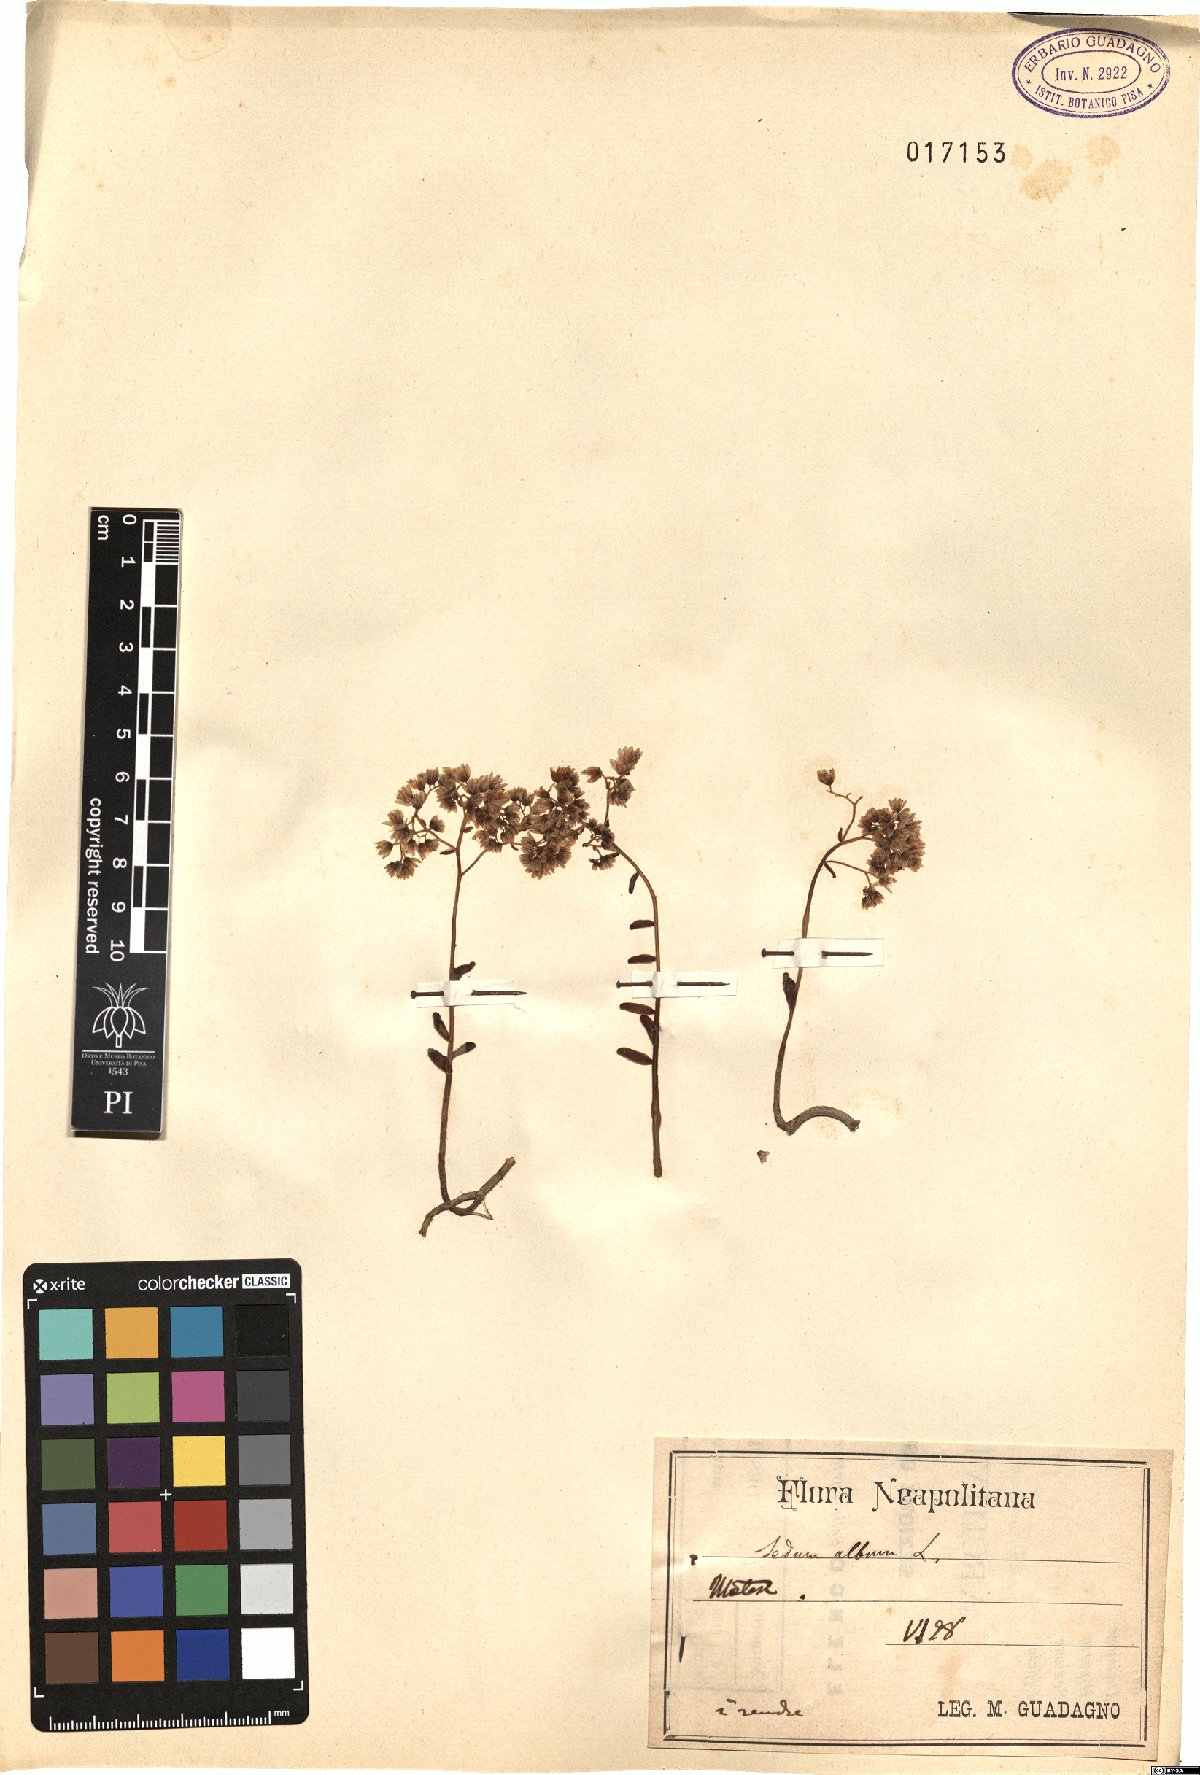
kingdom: Plantae
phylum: Tracheophyta
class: Magnoliopsida
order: Saxifragales
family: Crassulaceae
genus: Sedum
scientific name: Sedum album
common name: White stonecrop
